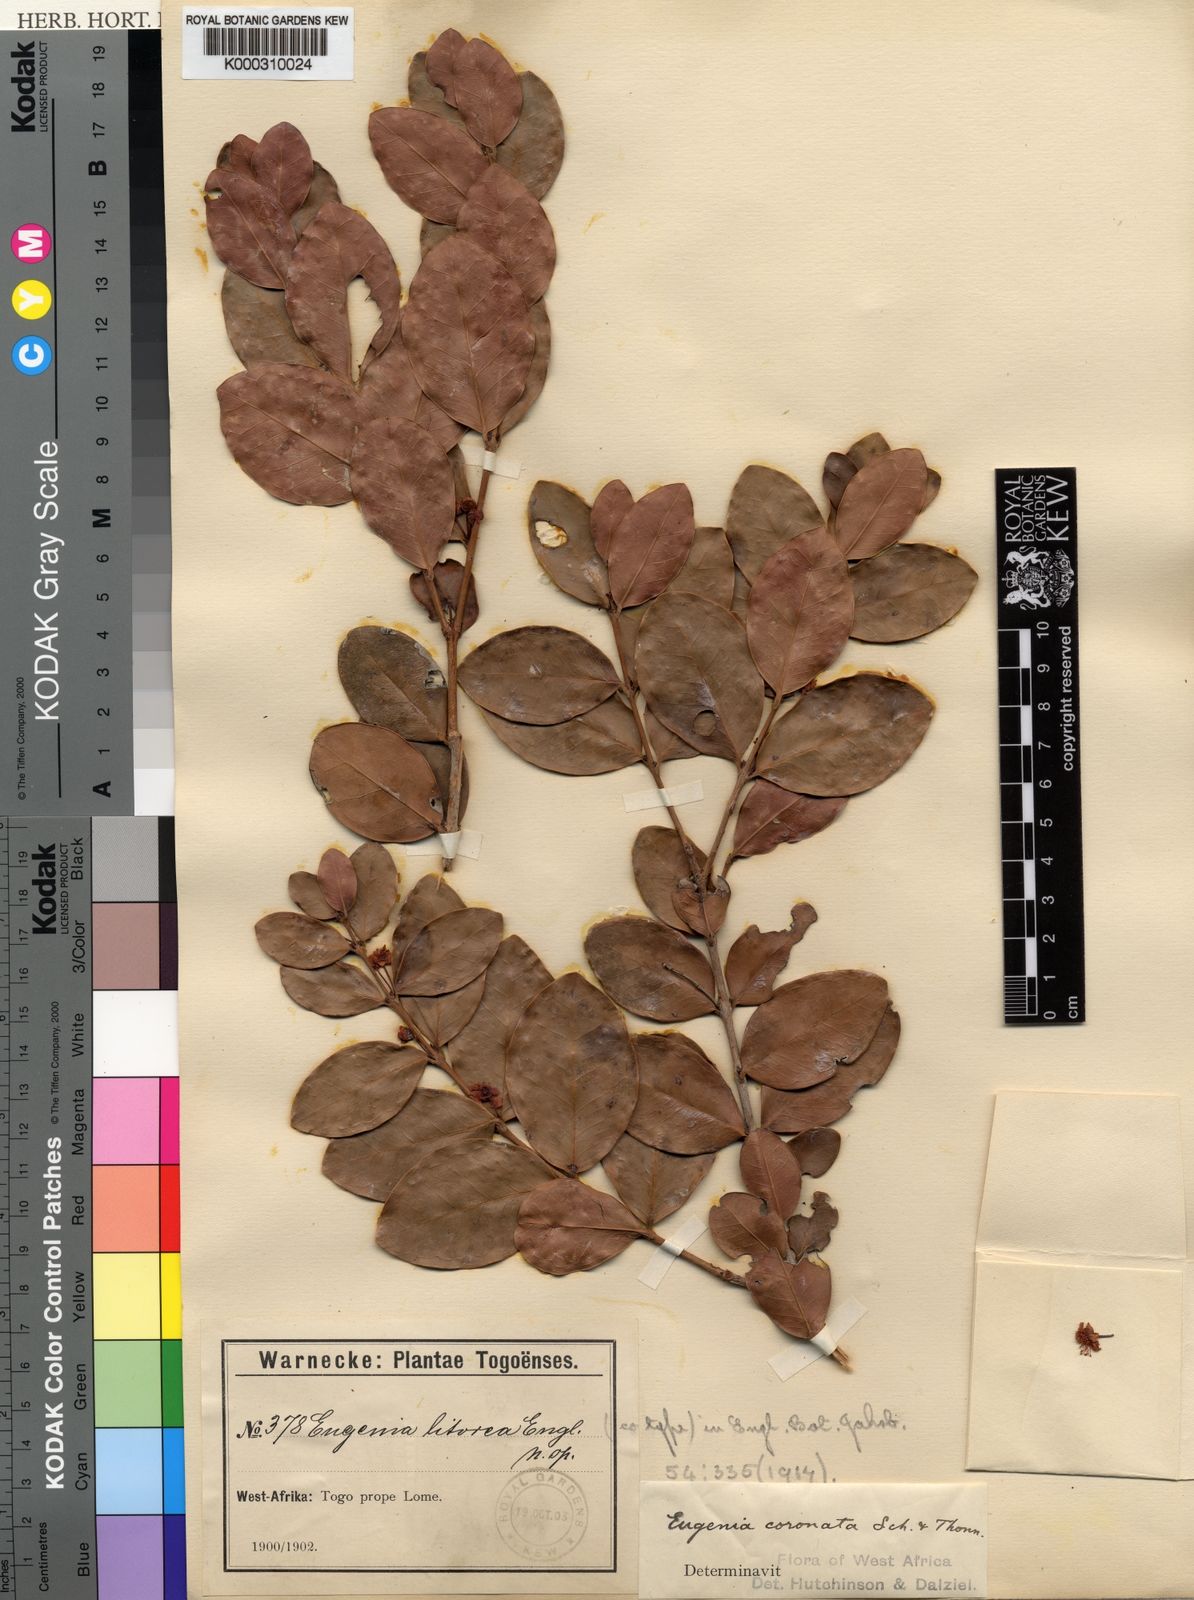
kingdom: Plantae
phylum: Tracheophyta
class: Magnoliopsida
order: Myrtales
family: Myrtaceae
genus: Eugenia
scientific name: Eugenia
